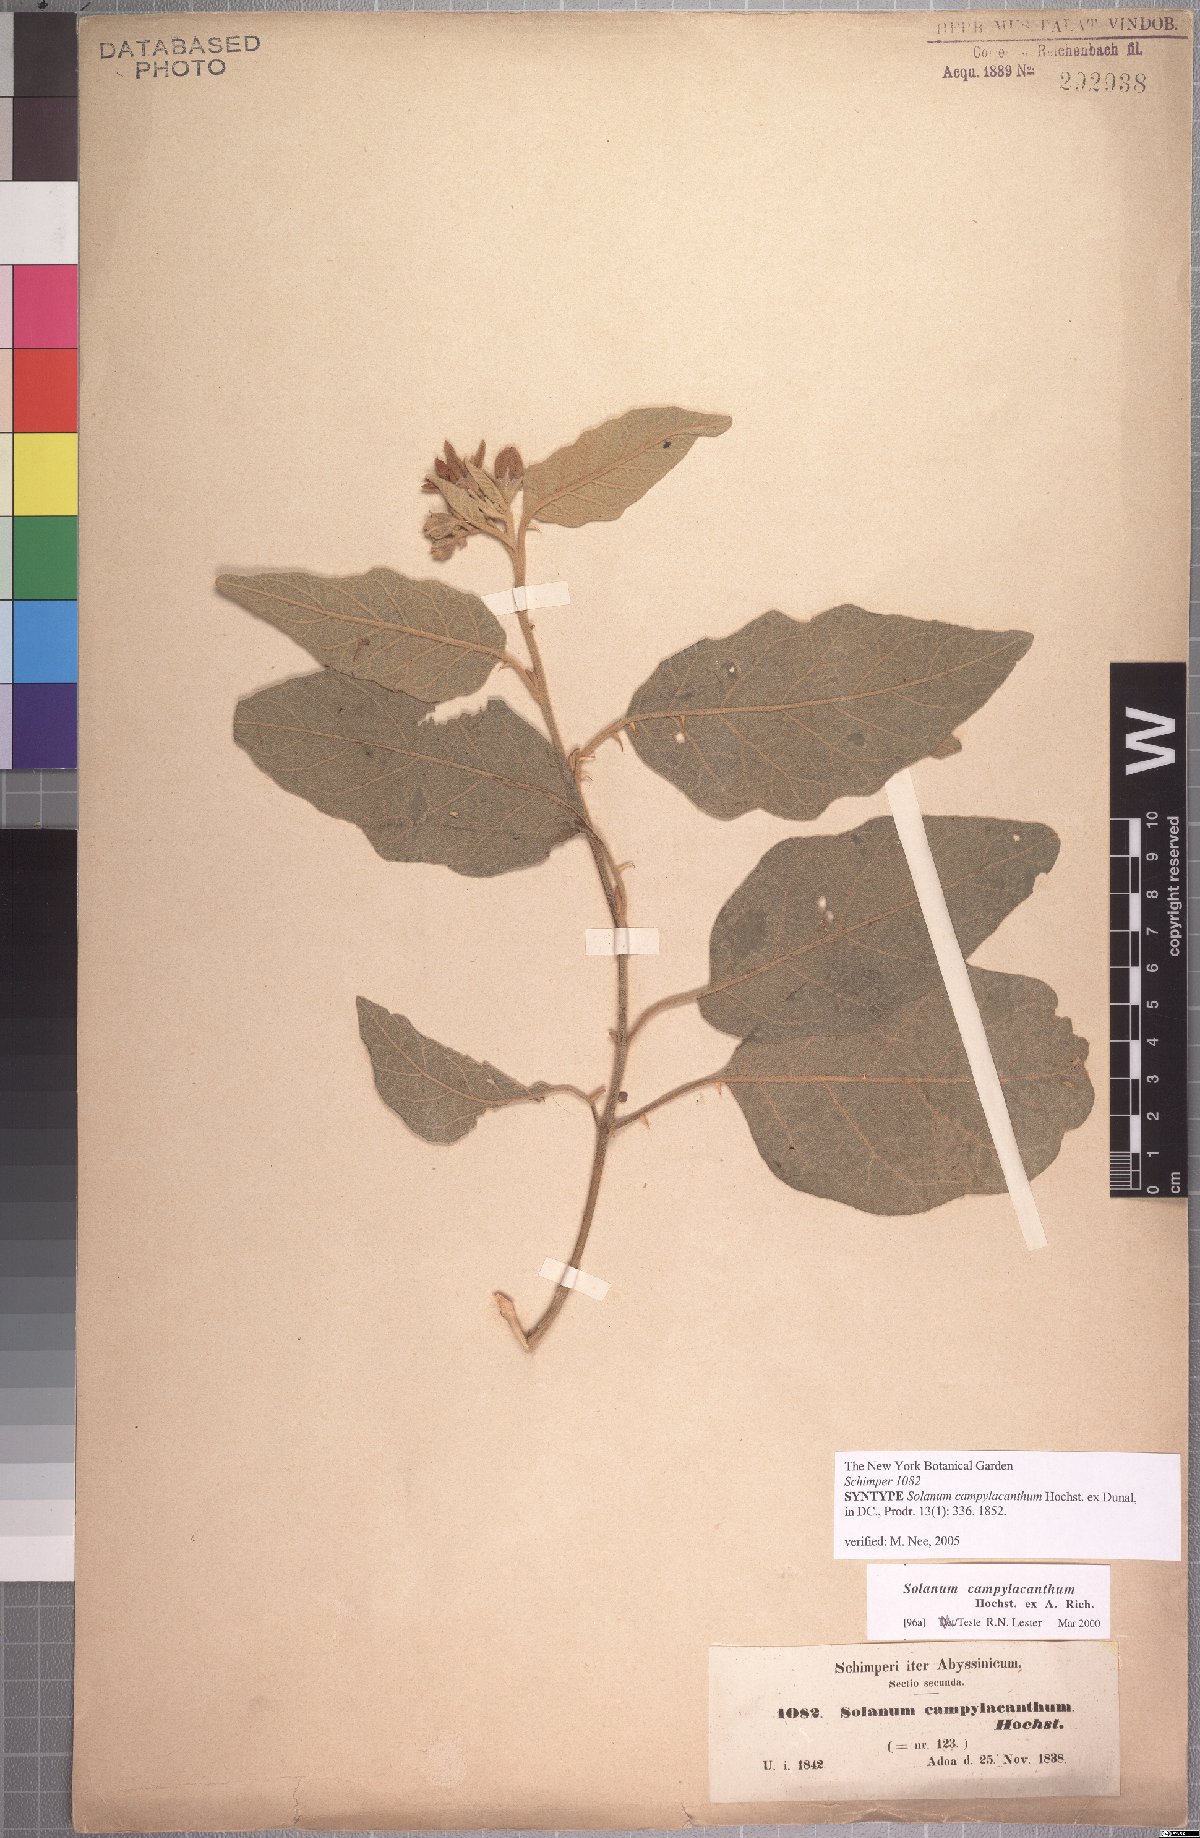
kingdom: Plantae
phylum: Tracheophyta
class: Magnoliopsida
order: Solanales
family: Solanaceae
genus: Solanum
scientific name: Solanum campylacanthum
